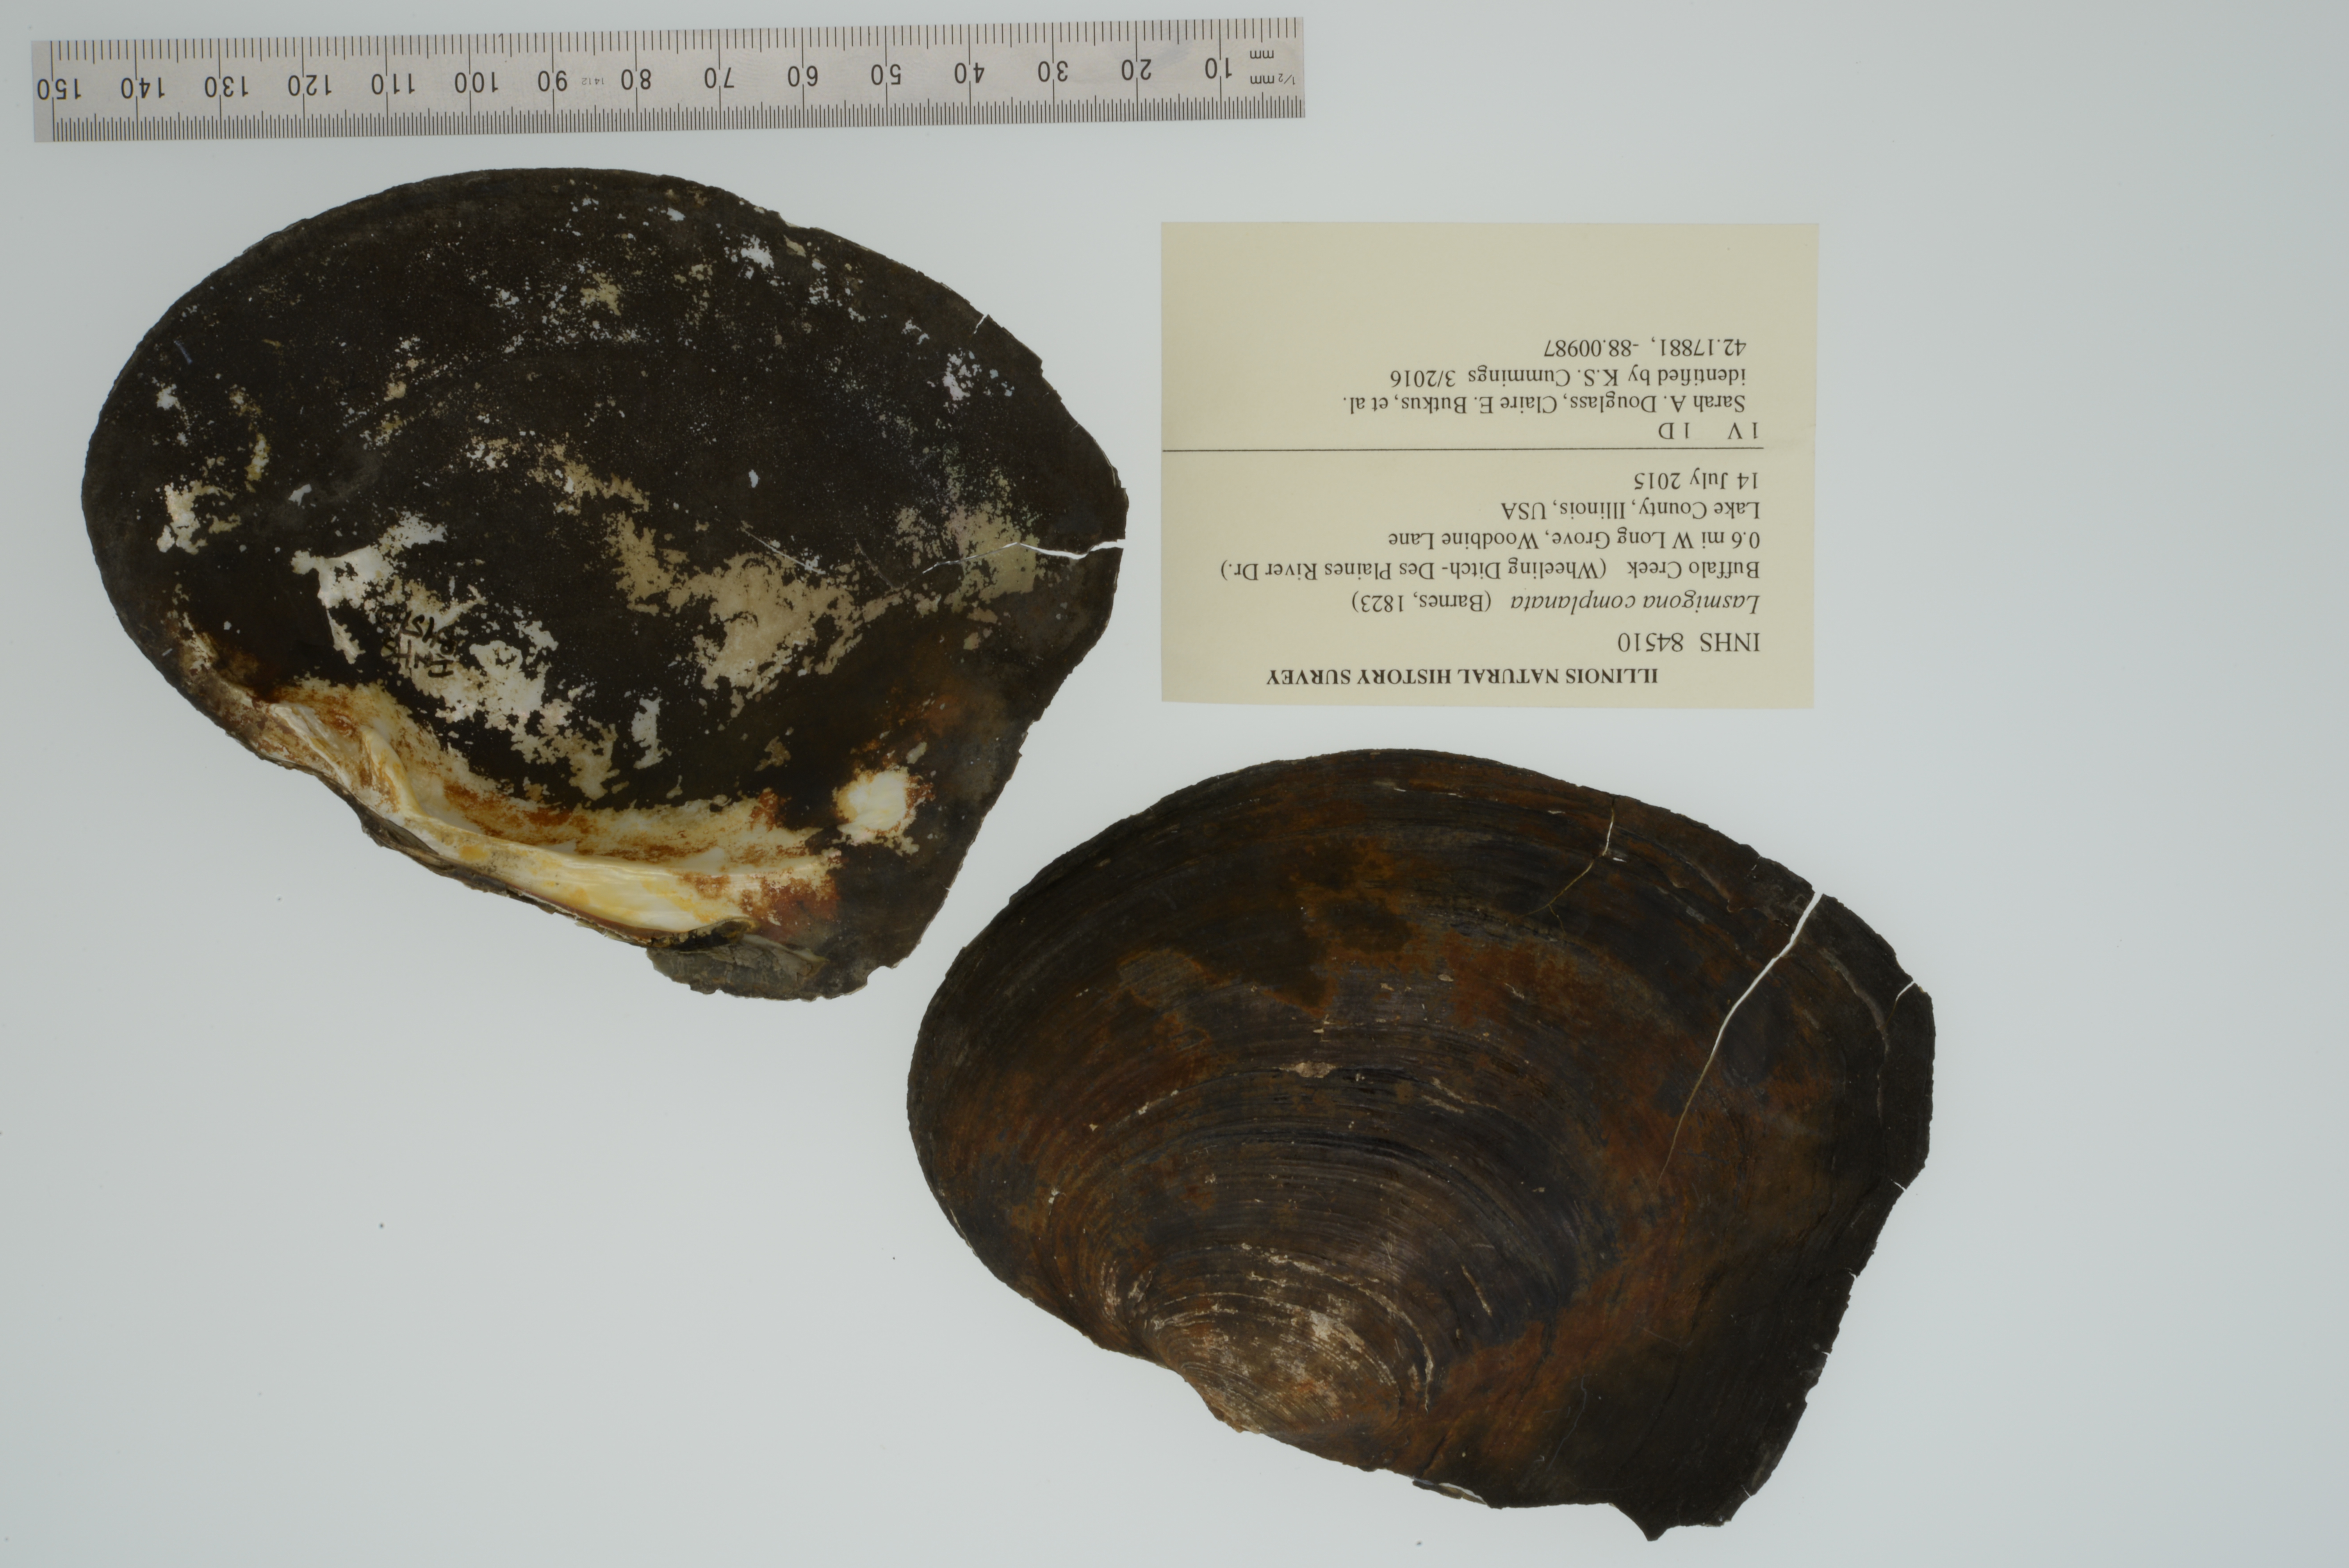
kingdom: Animalia
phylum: Mollusca
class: Bivalvia
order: Unionida
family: Unionidae
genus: Lasmigona
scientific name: Lasmigona complanata
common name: White heelsplitter
